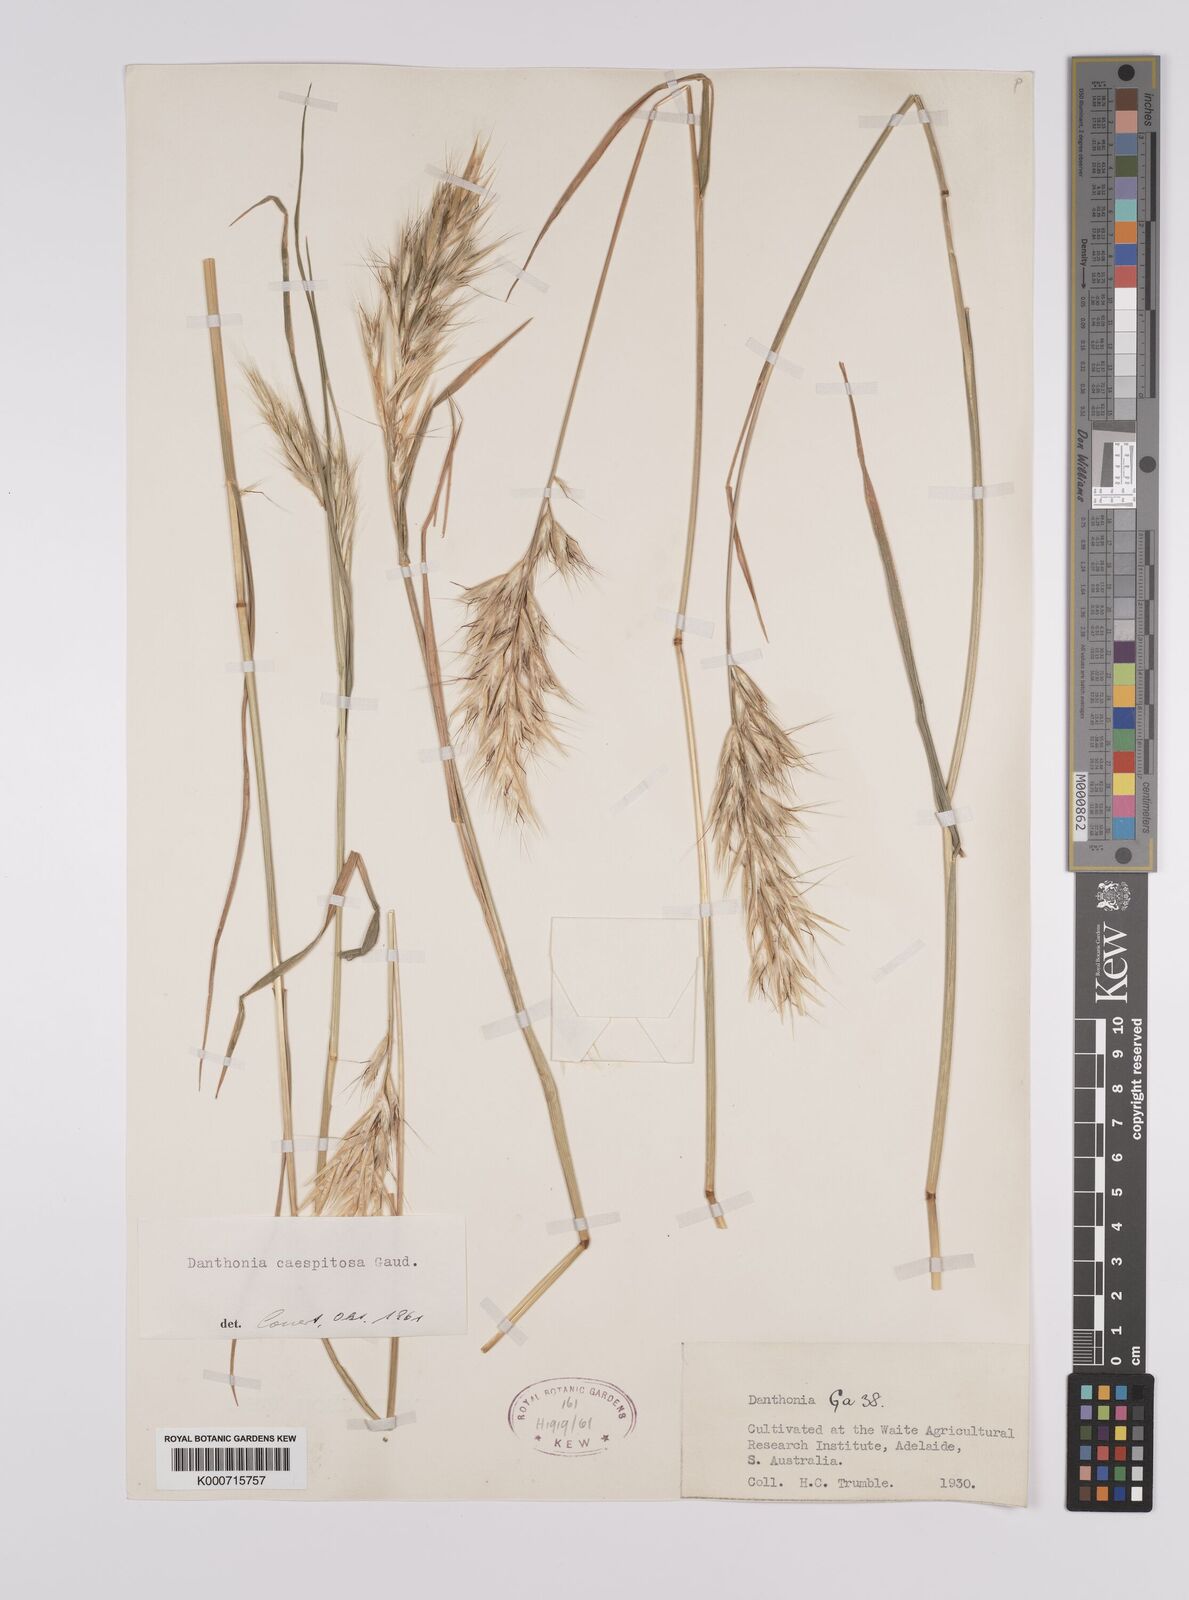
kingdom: Plantae
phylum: Tracheophyta
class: Liliopsida
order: Poales
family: Poaceae
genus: Rytidosperma
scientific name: Rytidosperma caespitosum
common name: Tufted wallaby grass
